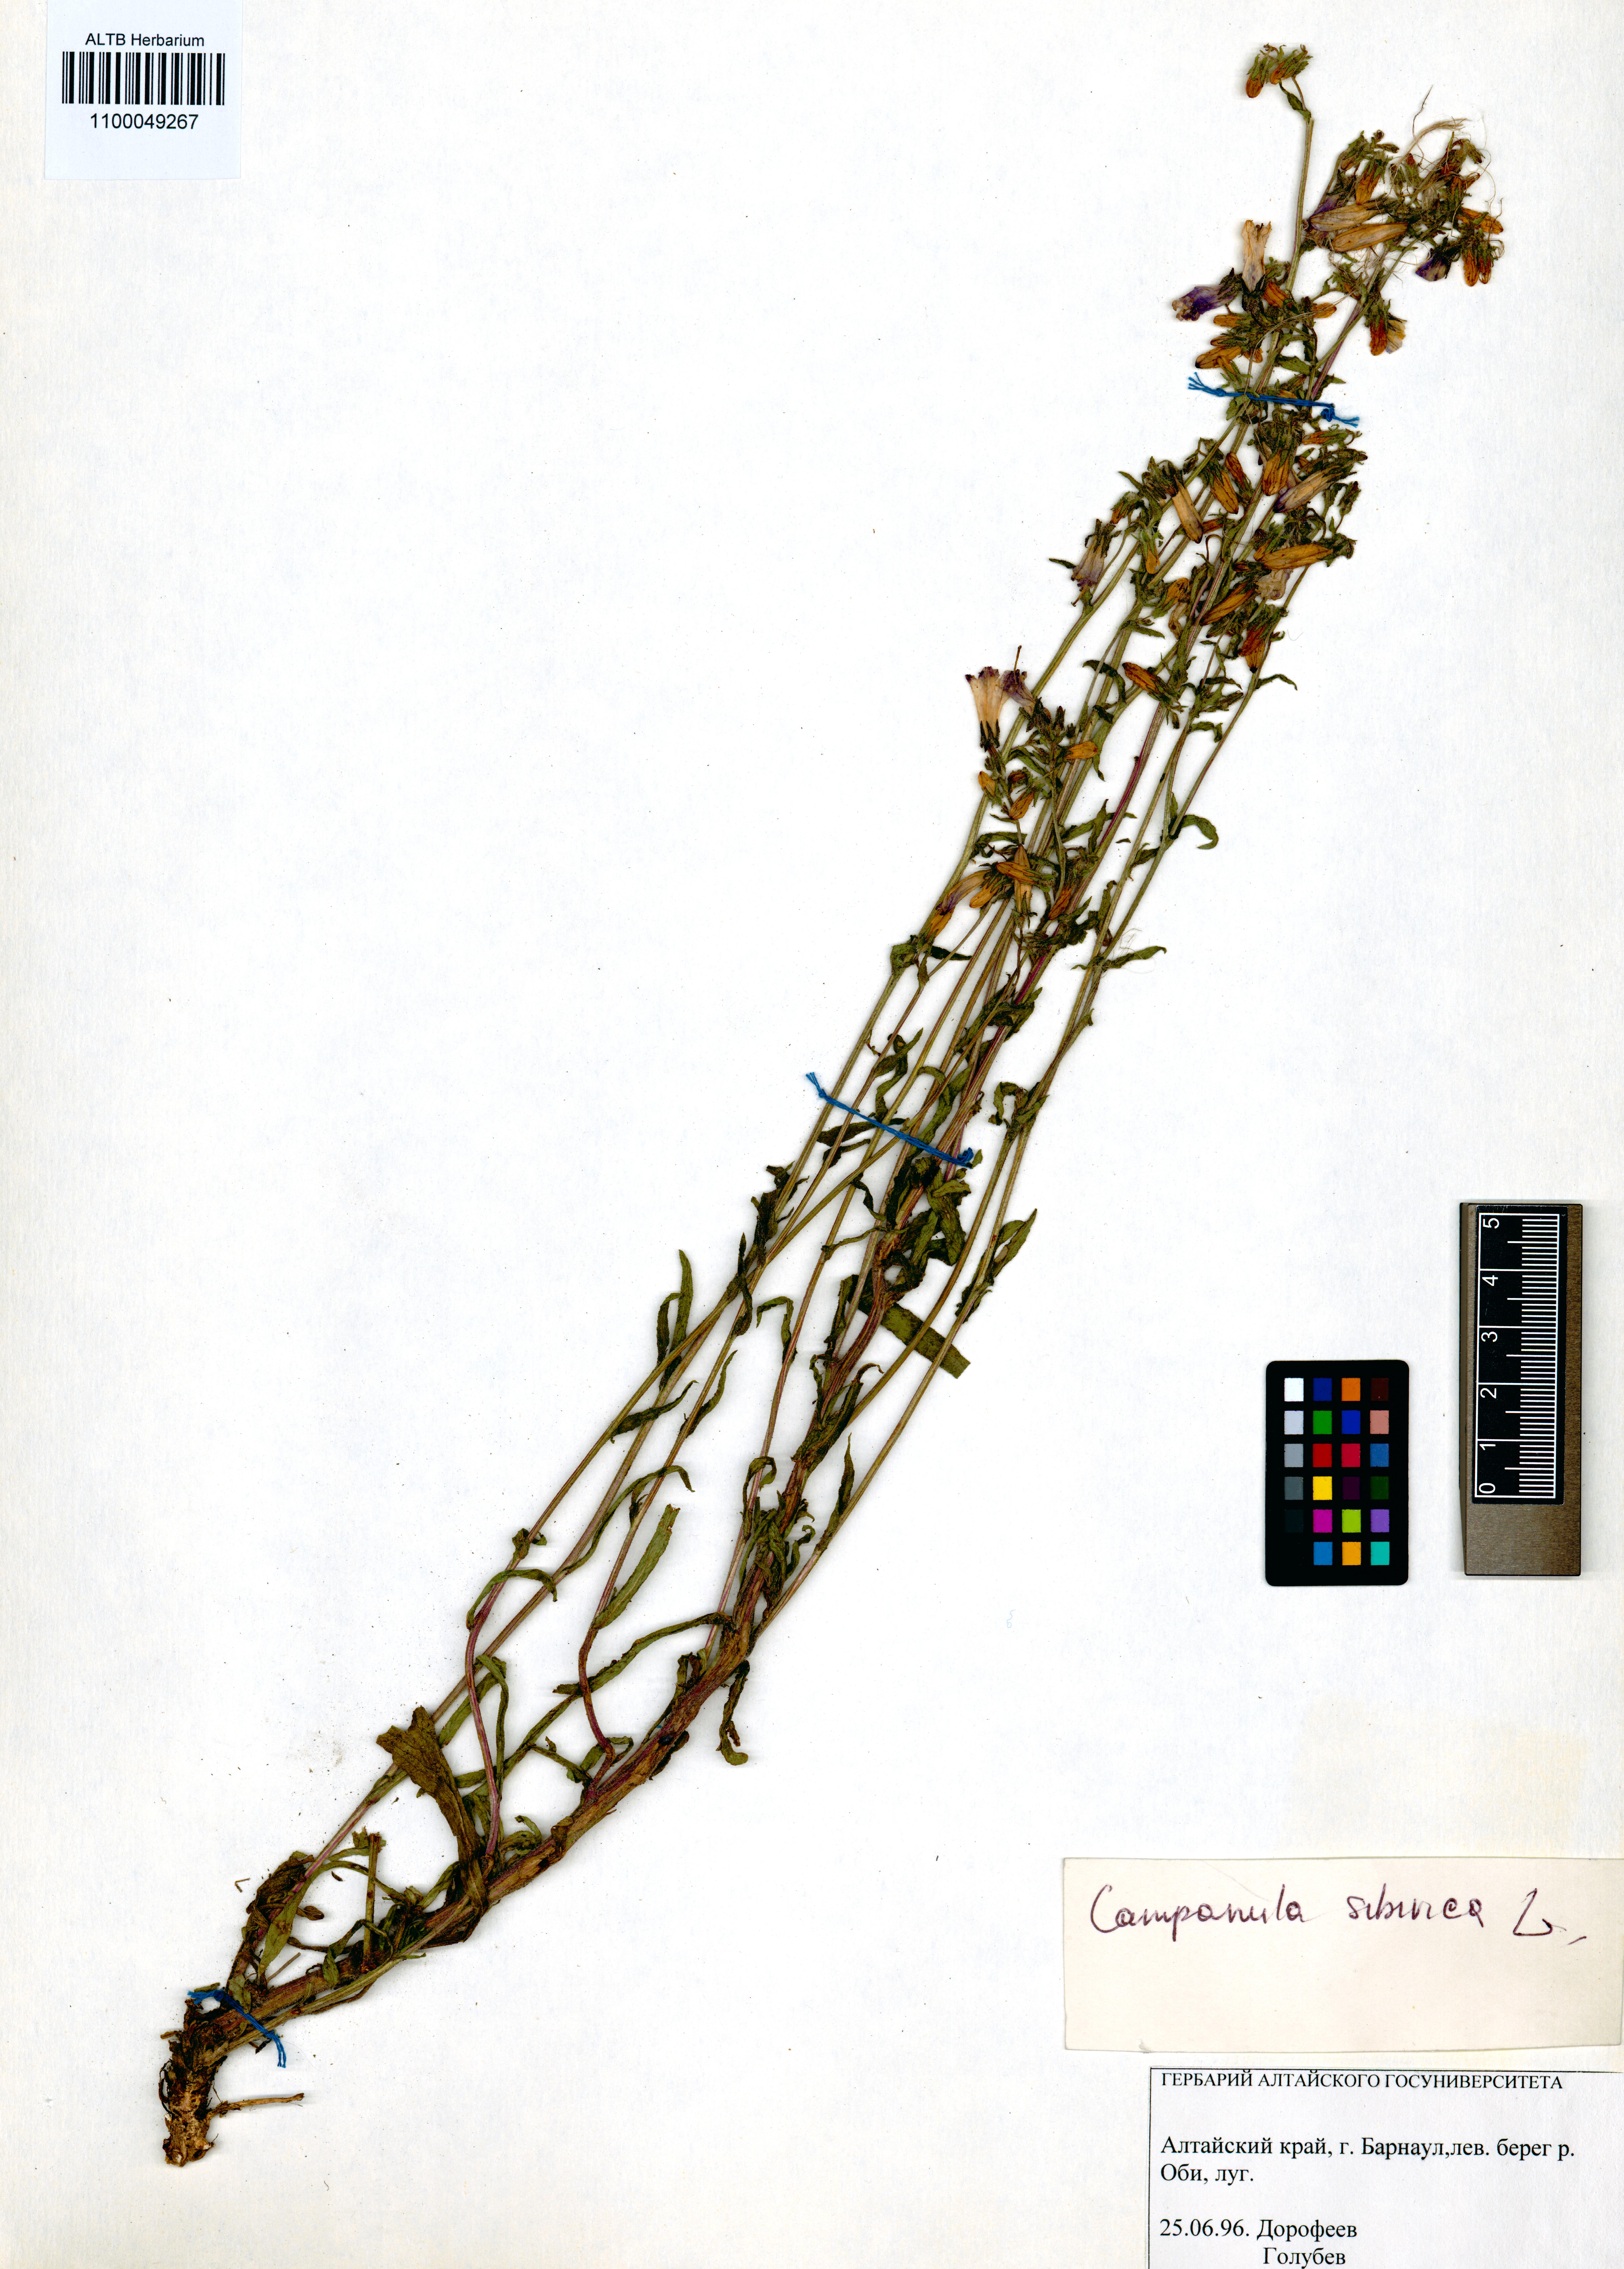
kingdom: Plantae
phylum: Tracheophyta
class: Magnoliopsida
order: Asterales
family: Campanulaceae
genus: Campanula
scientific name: Campanula sibirica
